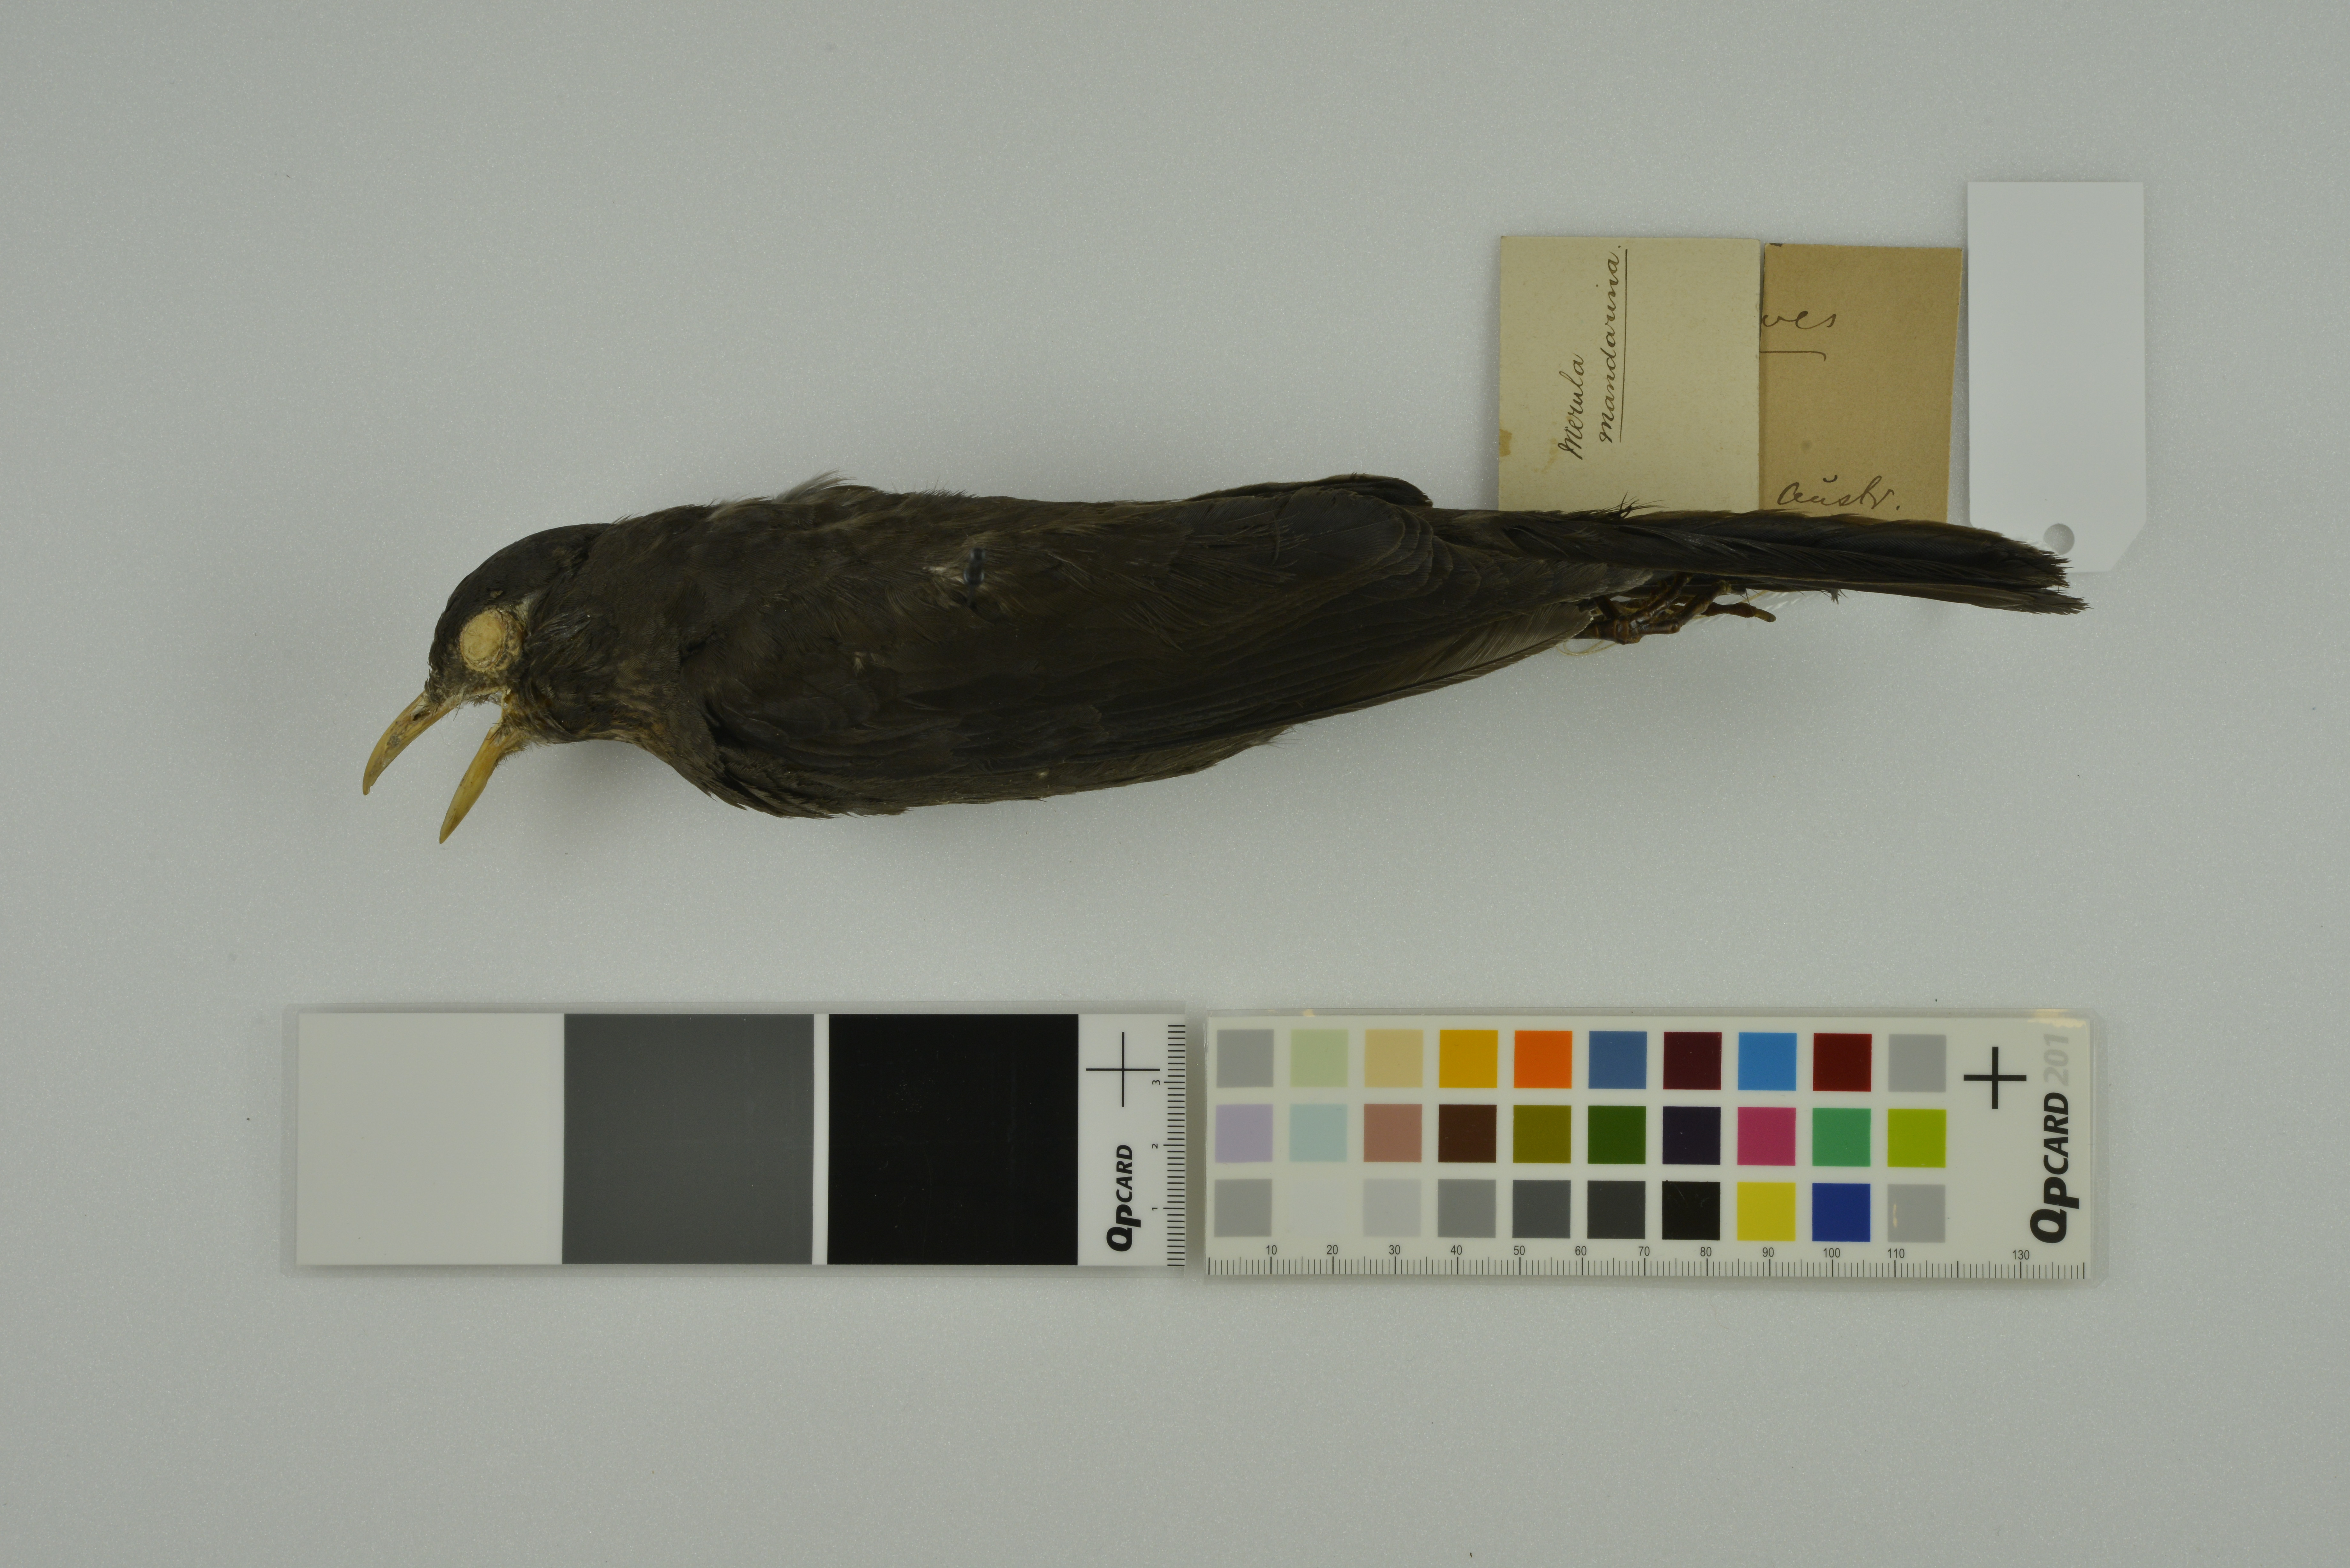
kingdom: Animalia
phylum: Chordata
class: Aves
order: Passeriformes
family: Turdidae
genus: Turdus
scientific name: Turdus mandarinus
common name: Chinese blackbird
